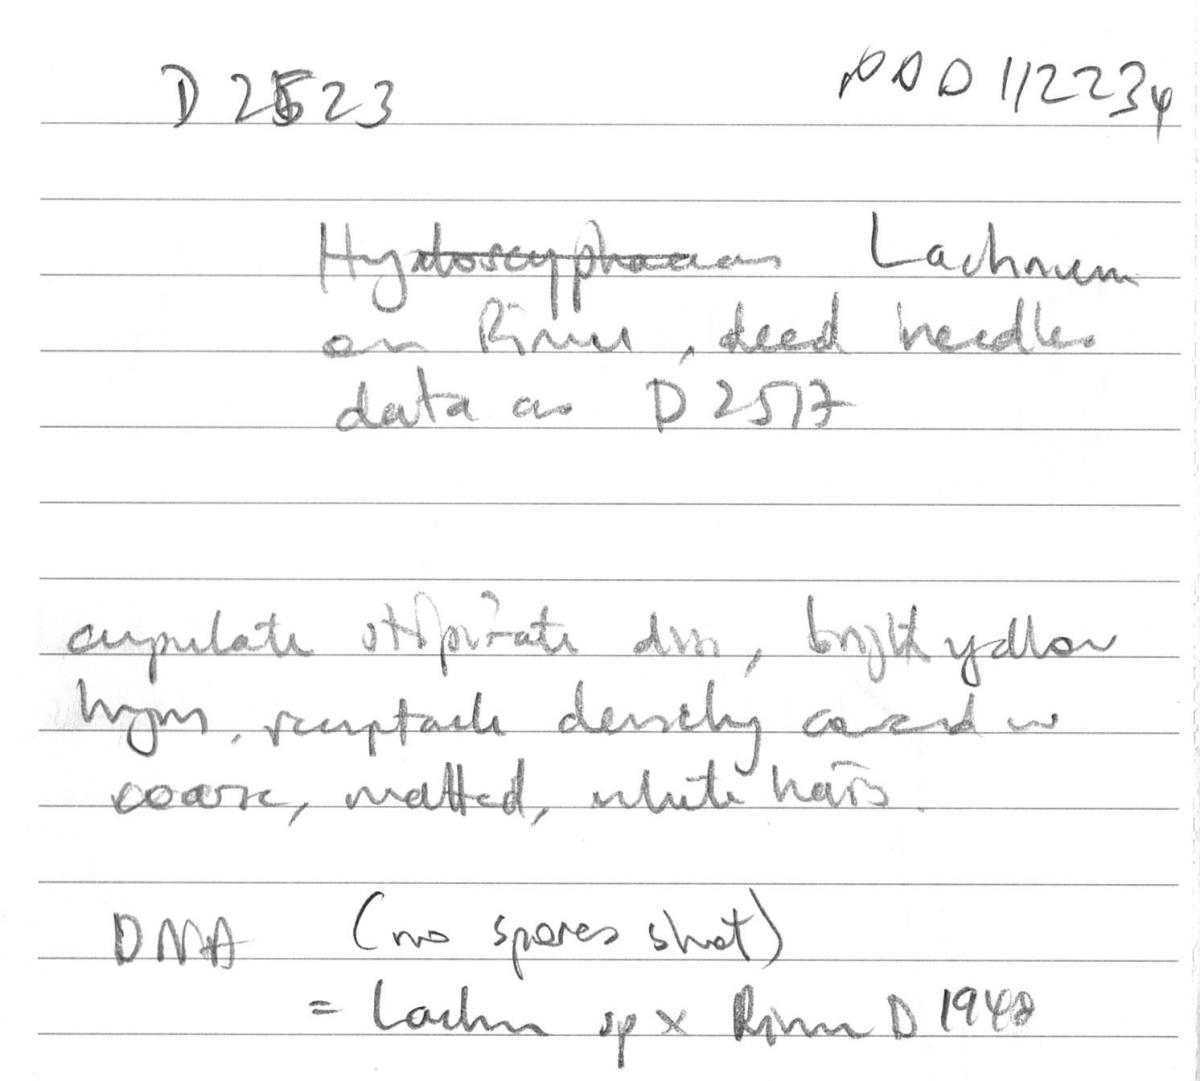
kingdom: Fungi
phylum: Ascomycota
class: Leotiomycetes
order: Helotiales
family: Lachnaceae
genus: Lachnopsis
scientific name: Lachnopsis
